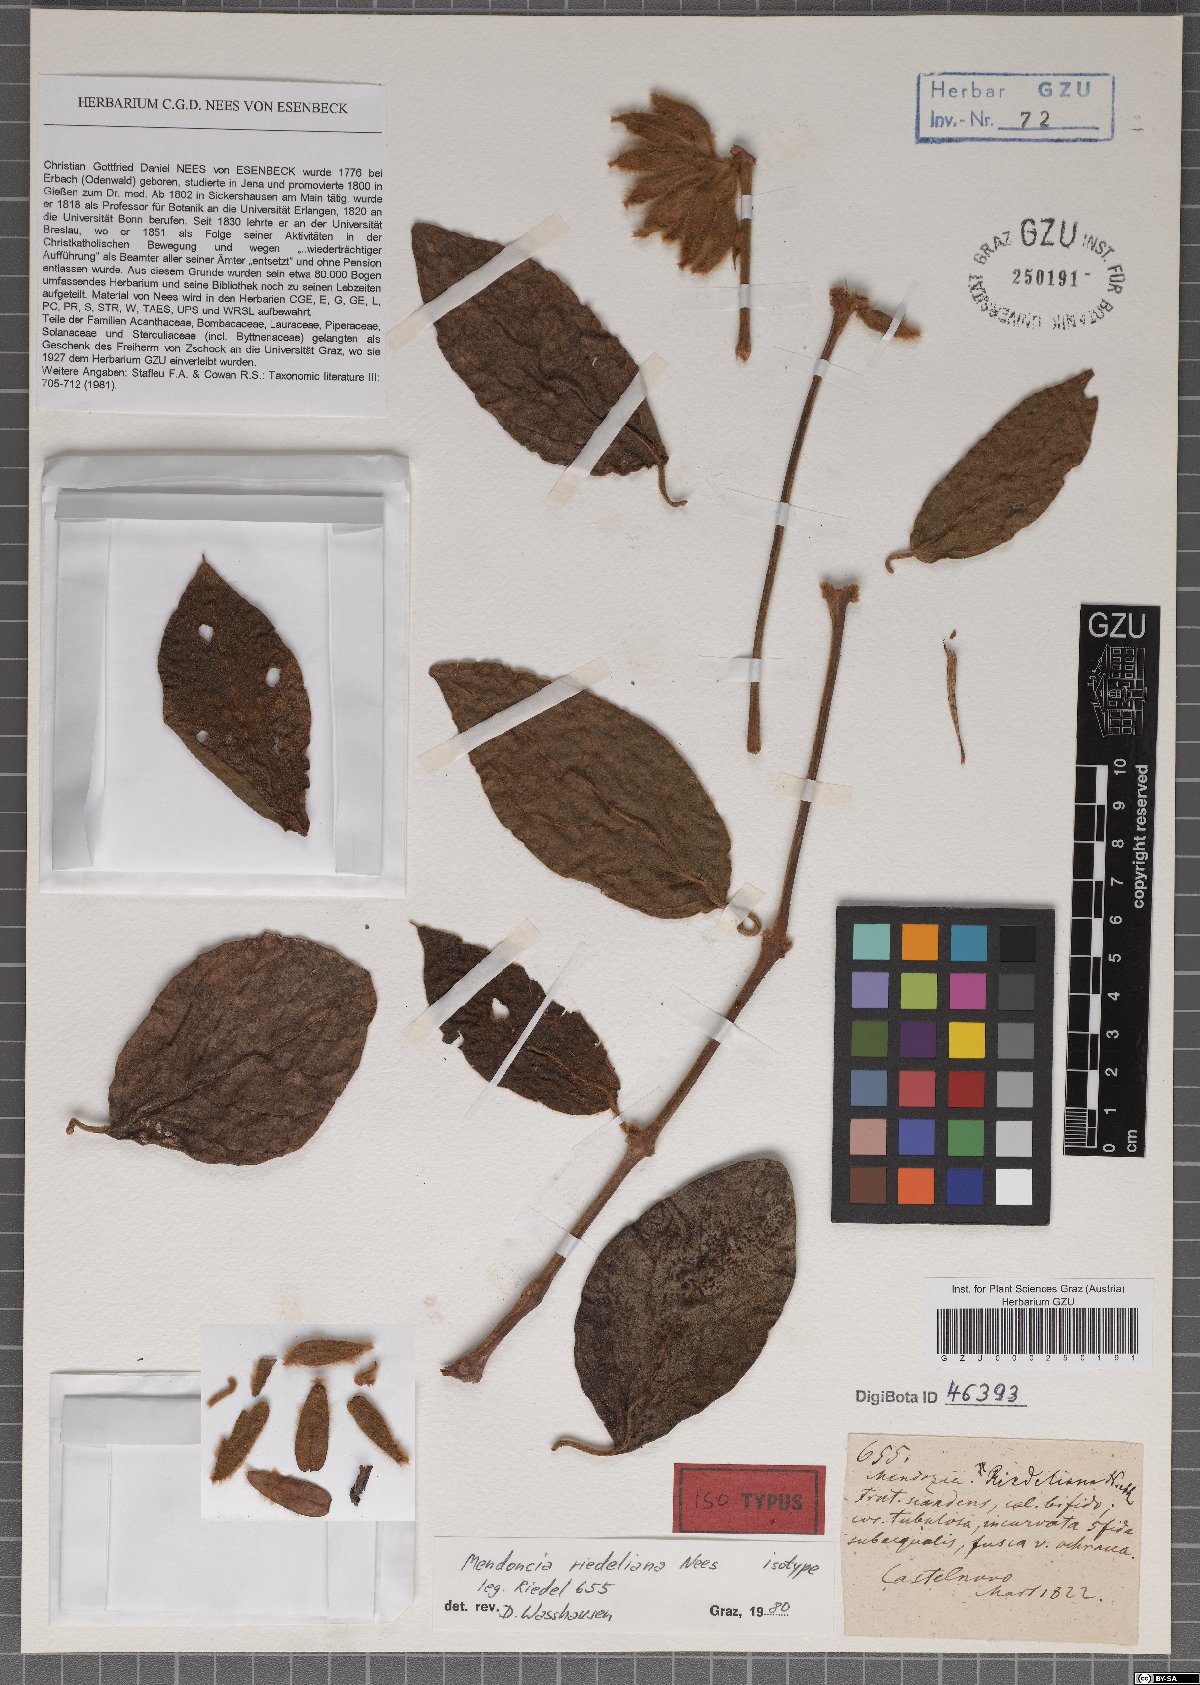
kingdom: Plantae
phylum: Tracheophyta
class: Magnoliopsida
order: Lamiales
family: Acanthaceae
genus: Mendoncia
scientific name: Mendoncia riedeliana
